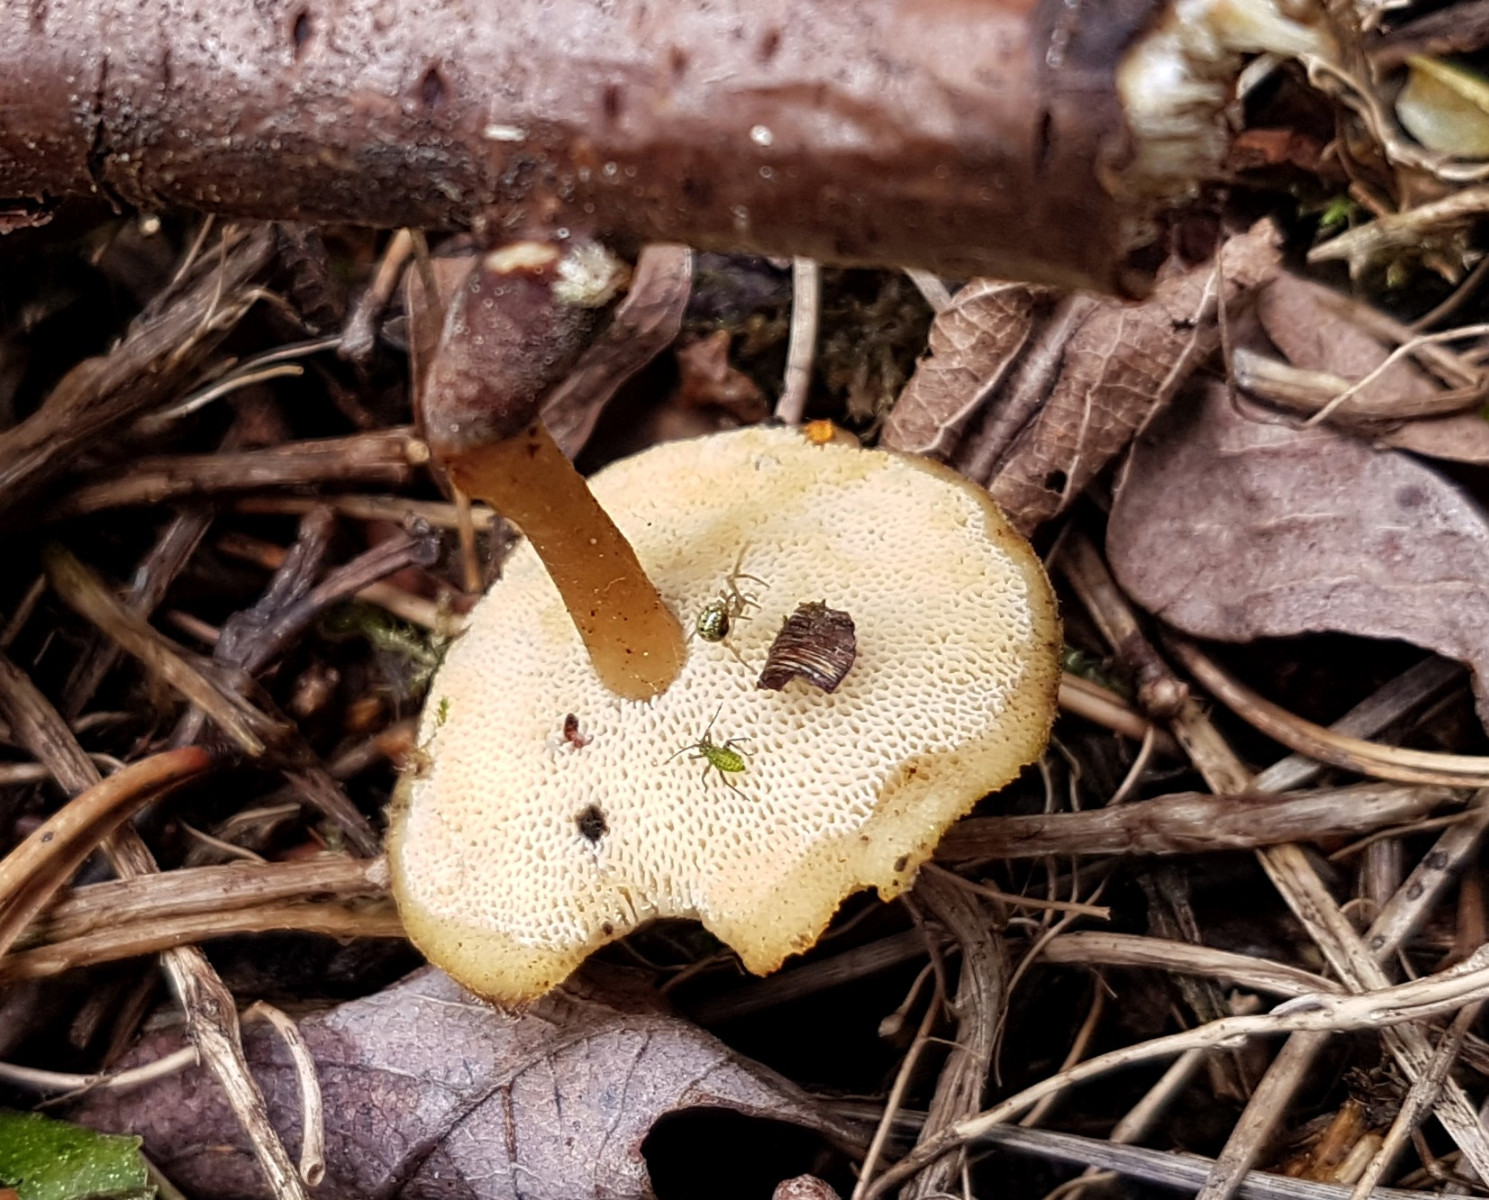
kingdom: Fungi
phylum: Basidiomycota
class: Agaricomycetes
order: Polyporales
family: Polyporaceae
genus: Lentinus
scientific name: Lentinus brumalis
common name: vinter-stilkporesvamp
